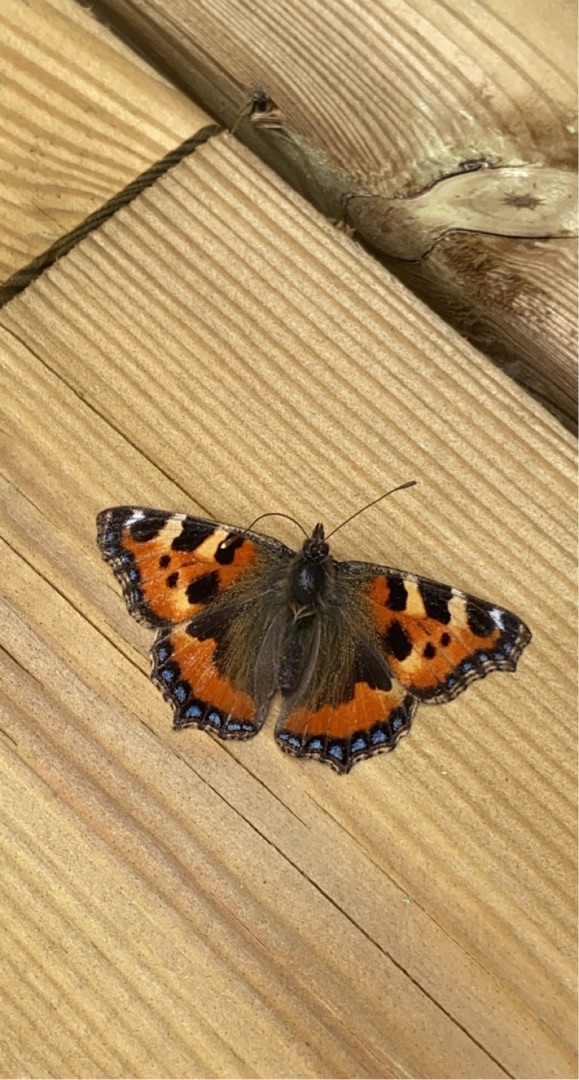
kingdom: Animalia
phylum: Arthropoda
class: Insecta
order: Lepidoptera
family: Nymphalidae
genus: Aglais
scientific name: Aglais urticae
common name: Nældens takvinge
